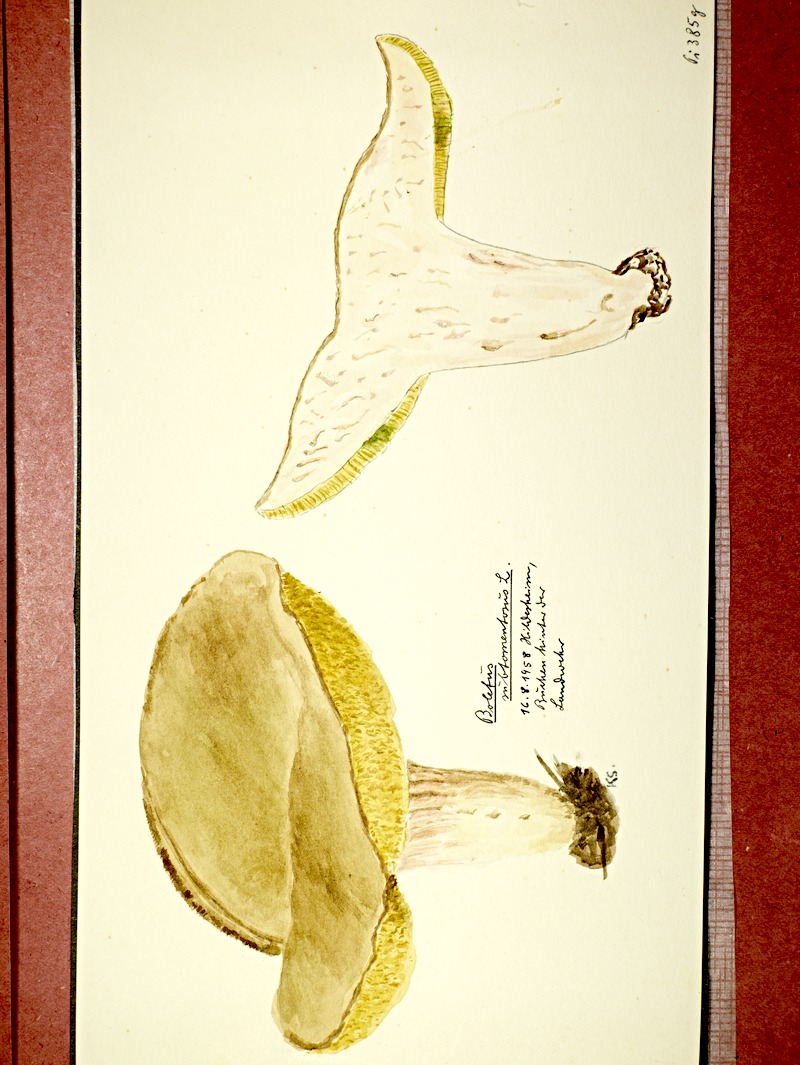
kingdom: Fungi
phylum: Basidiomycota
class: Agaricomycetes
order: Boletales
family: Boletaceae
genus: Xerocomus
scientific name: Xerocomus subtomentosus
